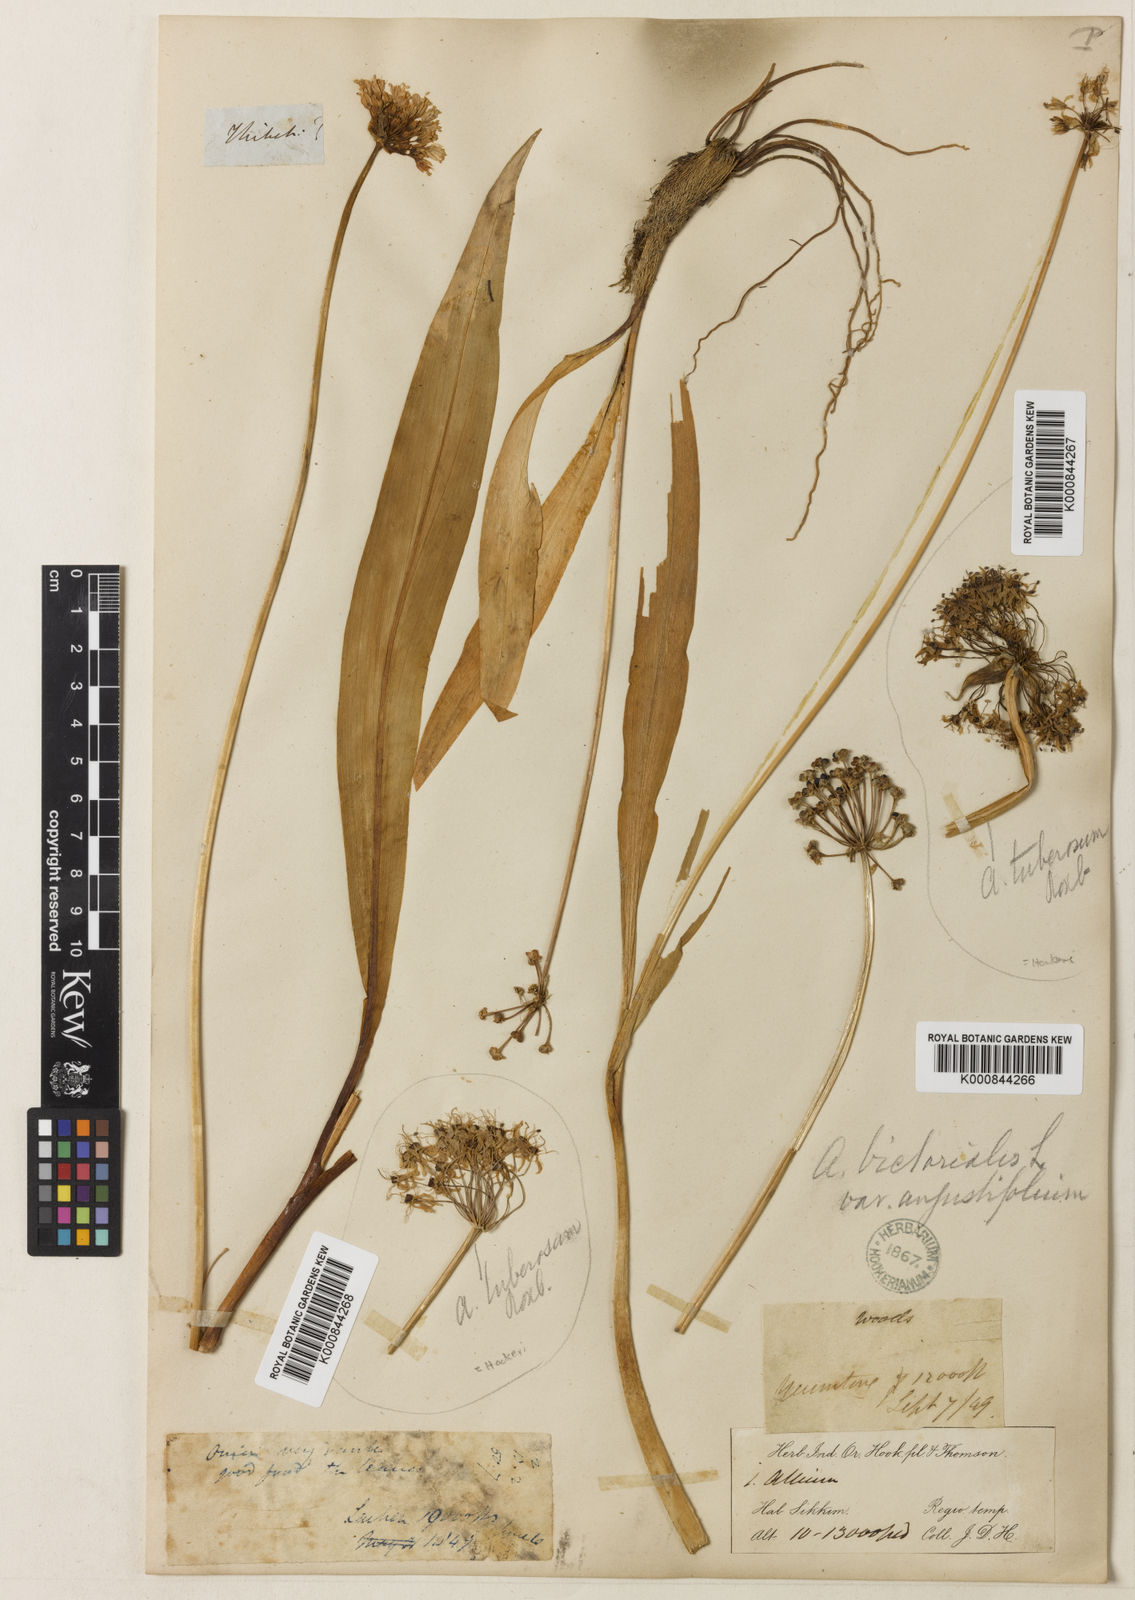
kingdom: Plantae
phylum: Tracheophyta
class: Liliopsida
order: Asparagales
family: Amaryllidaceae
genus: Allium
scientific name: Allium victorialis
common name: Alpine leek
